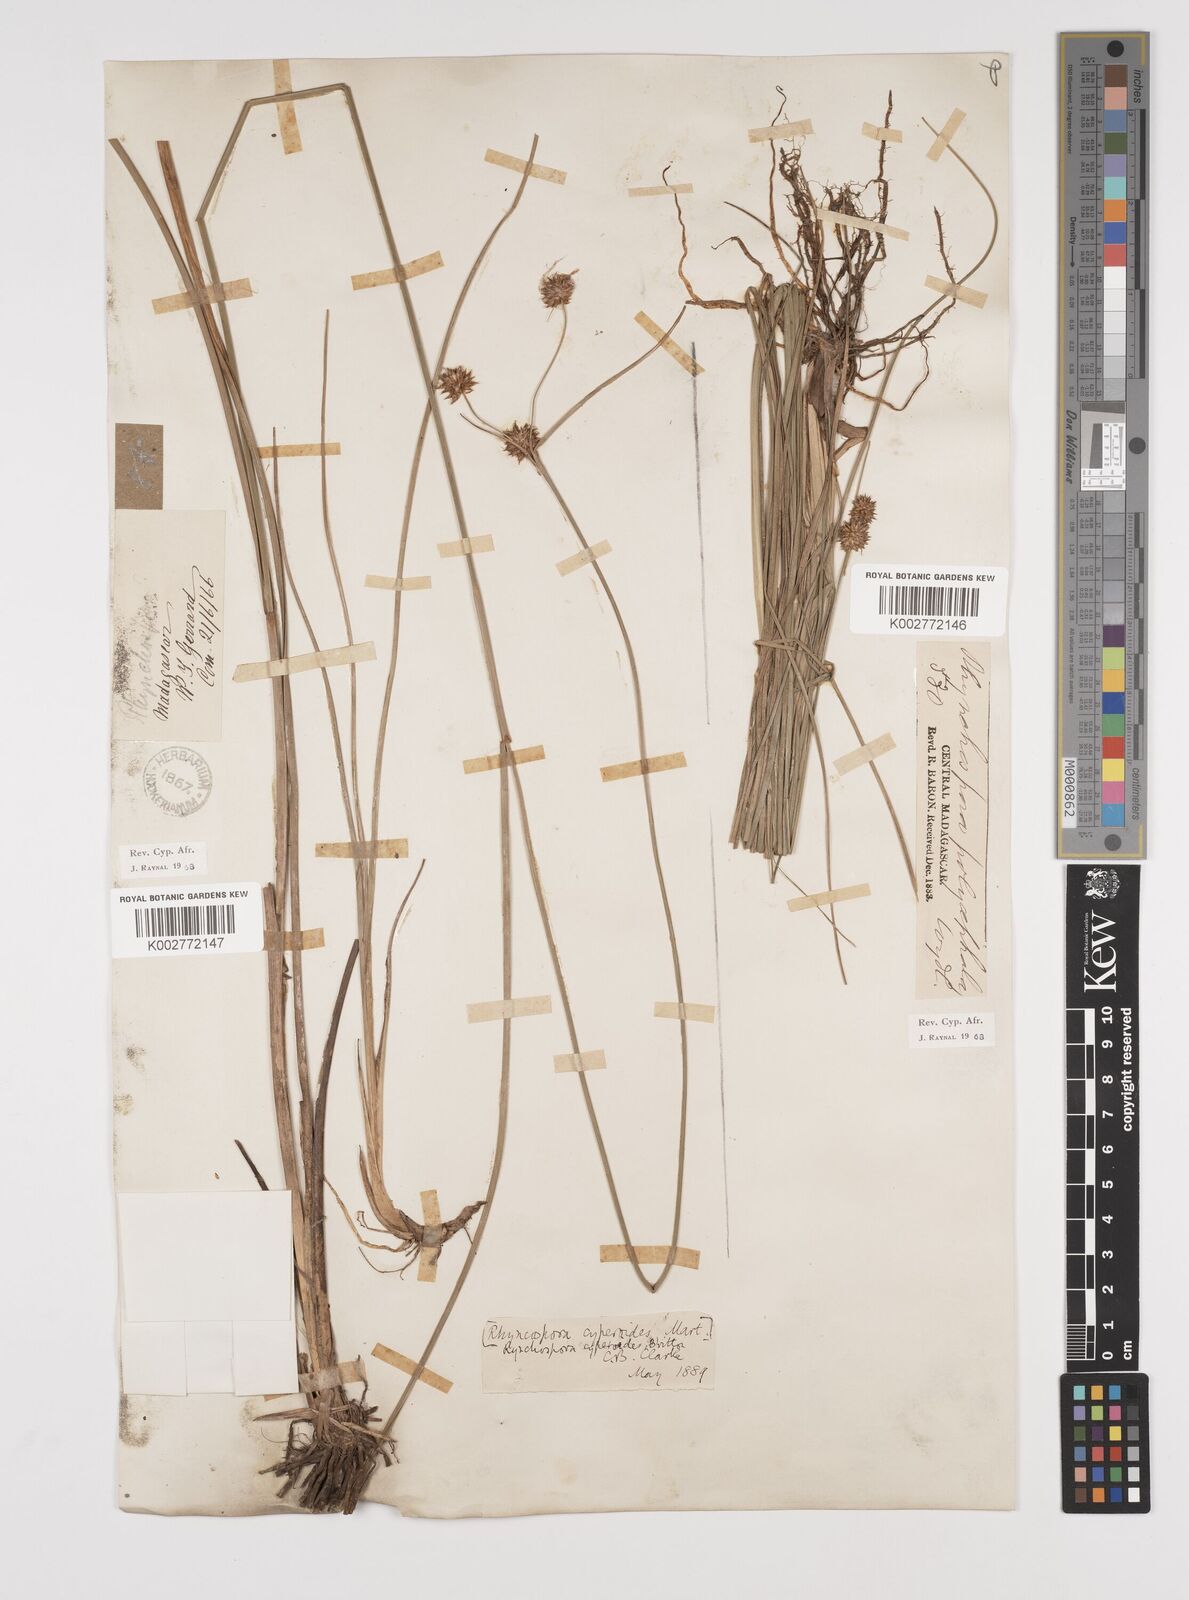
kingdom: Plantae
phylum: Tracheophyta
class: Liliopsida
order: Poales
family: Cyperaceae
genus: Rhynchospora
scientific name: Rhynchospora holoschoenoides
